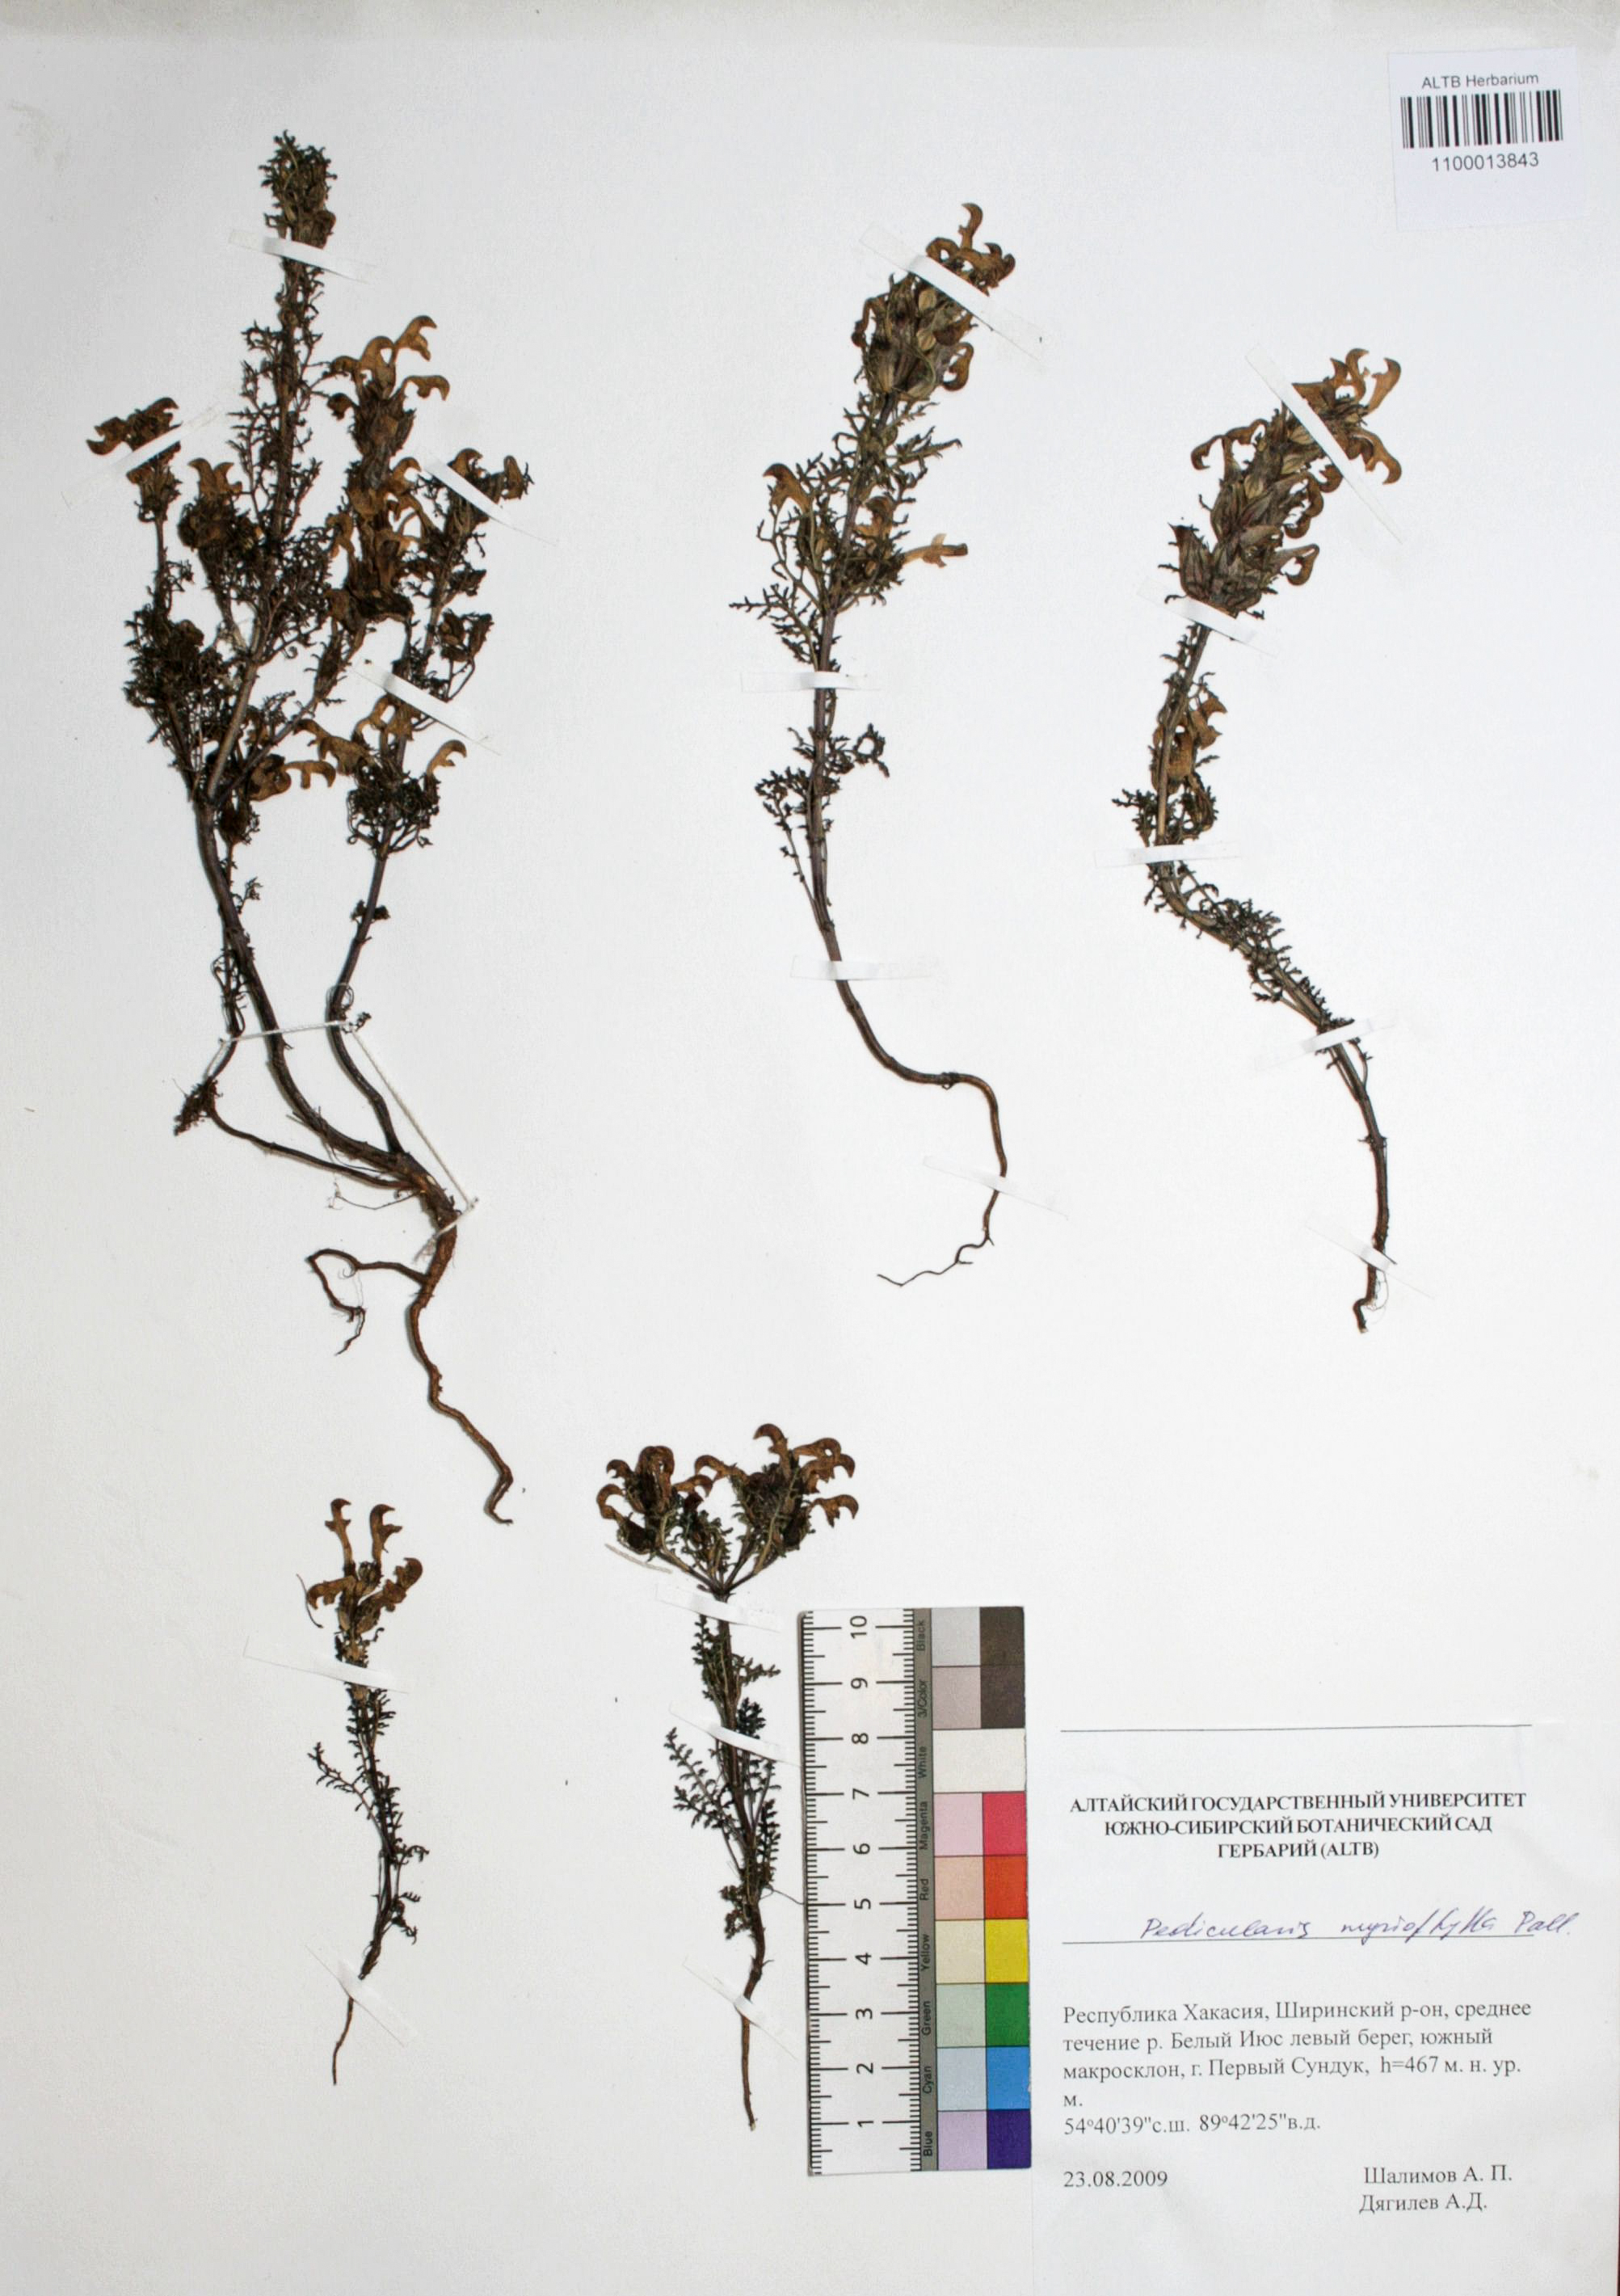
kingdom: Plantae
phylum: Tracheophyta
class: Magnoliopsida
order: Lamiales
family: Orobanchaceae
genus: Pedicularis
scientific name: Pedicularis myriophylla
